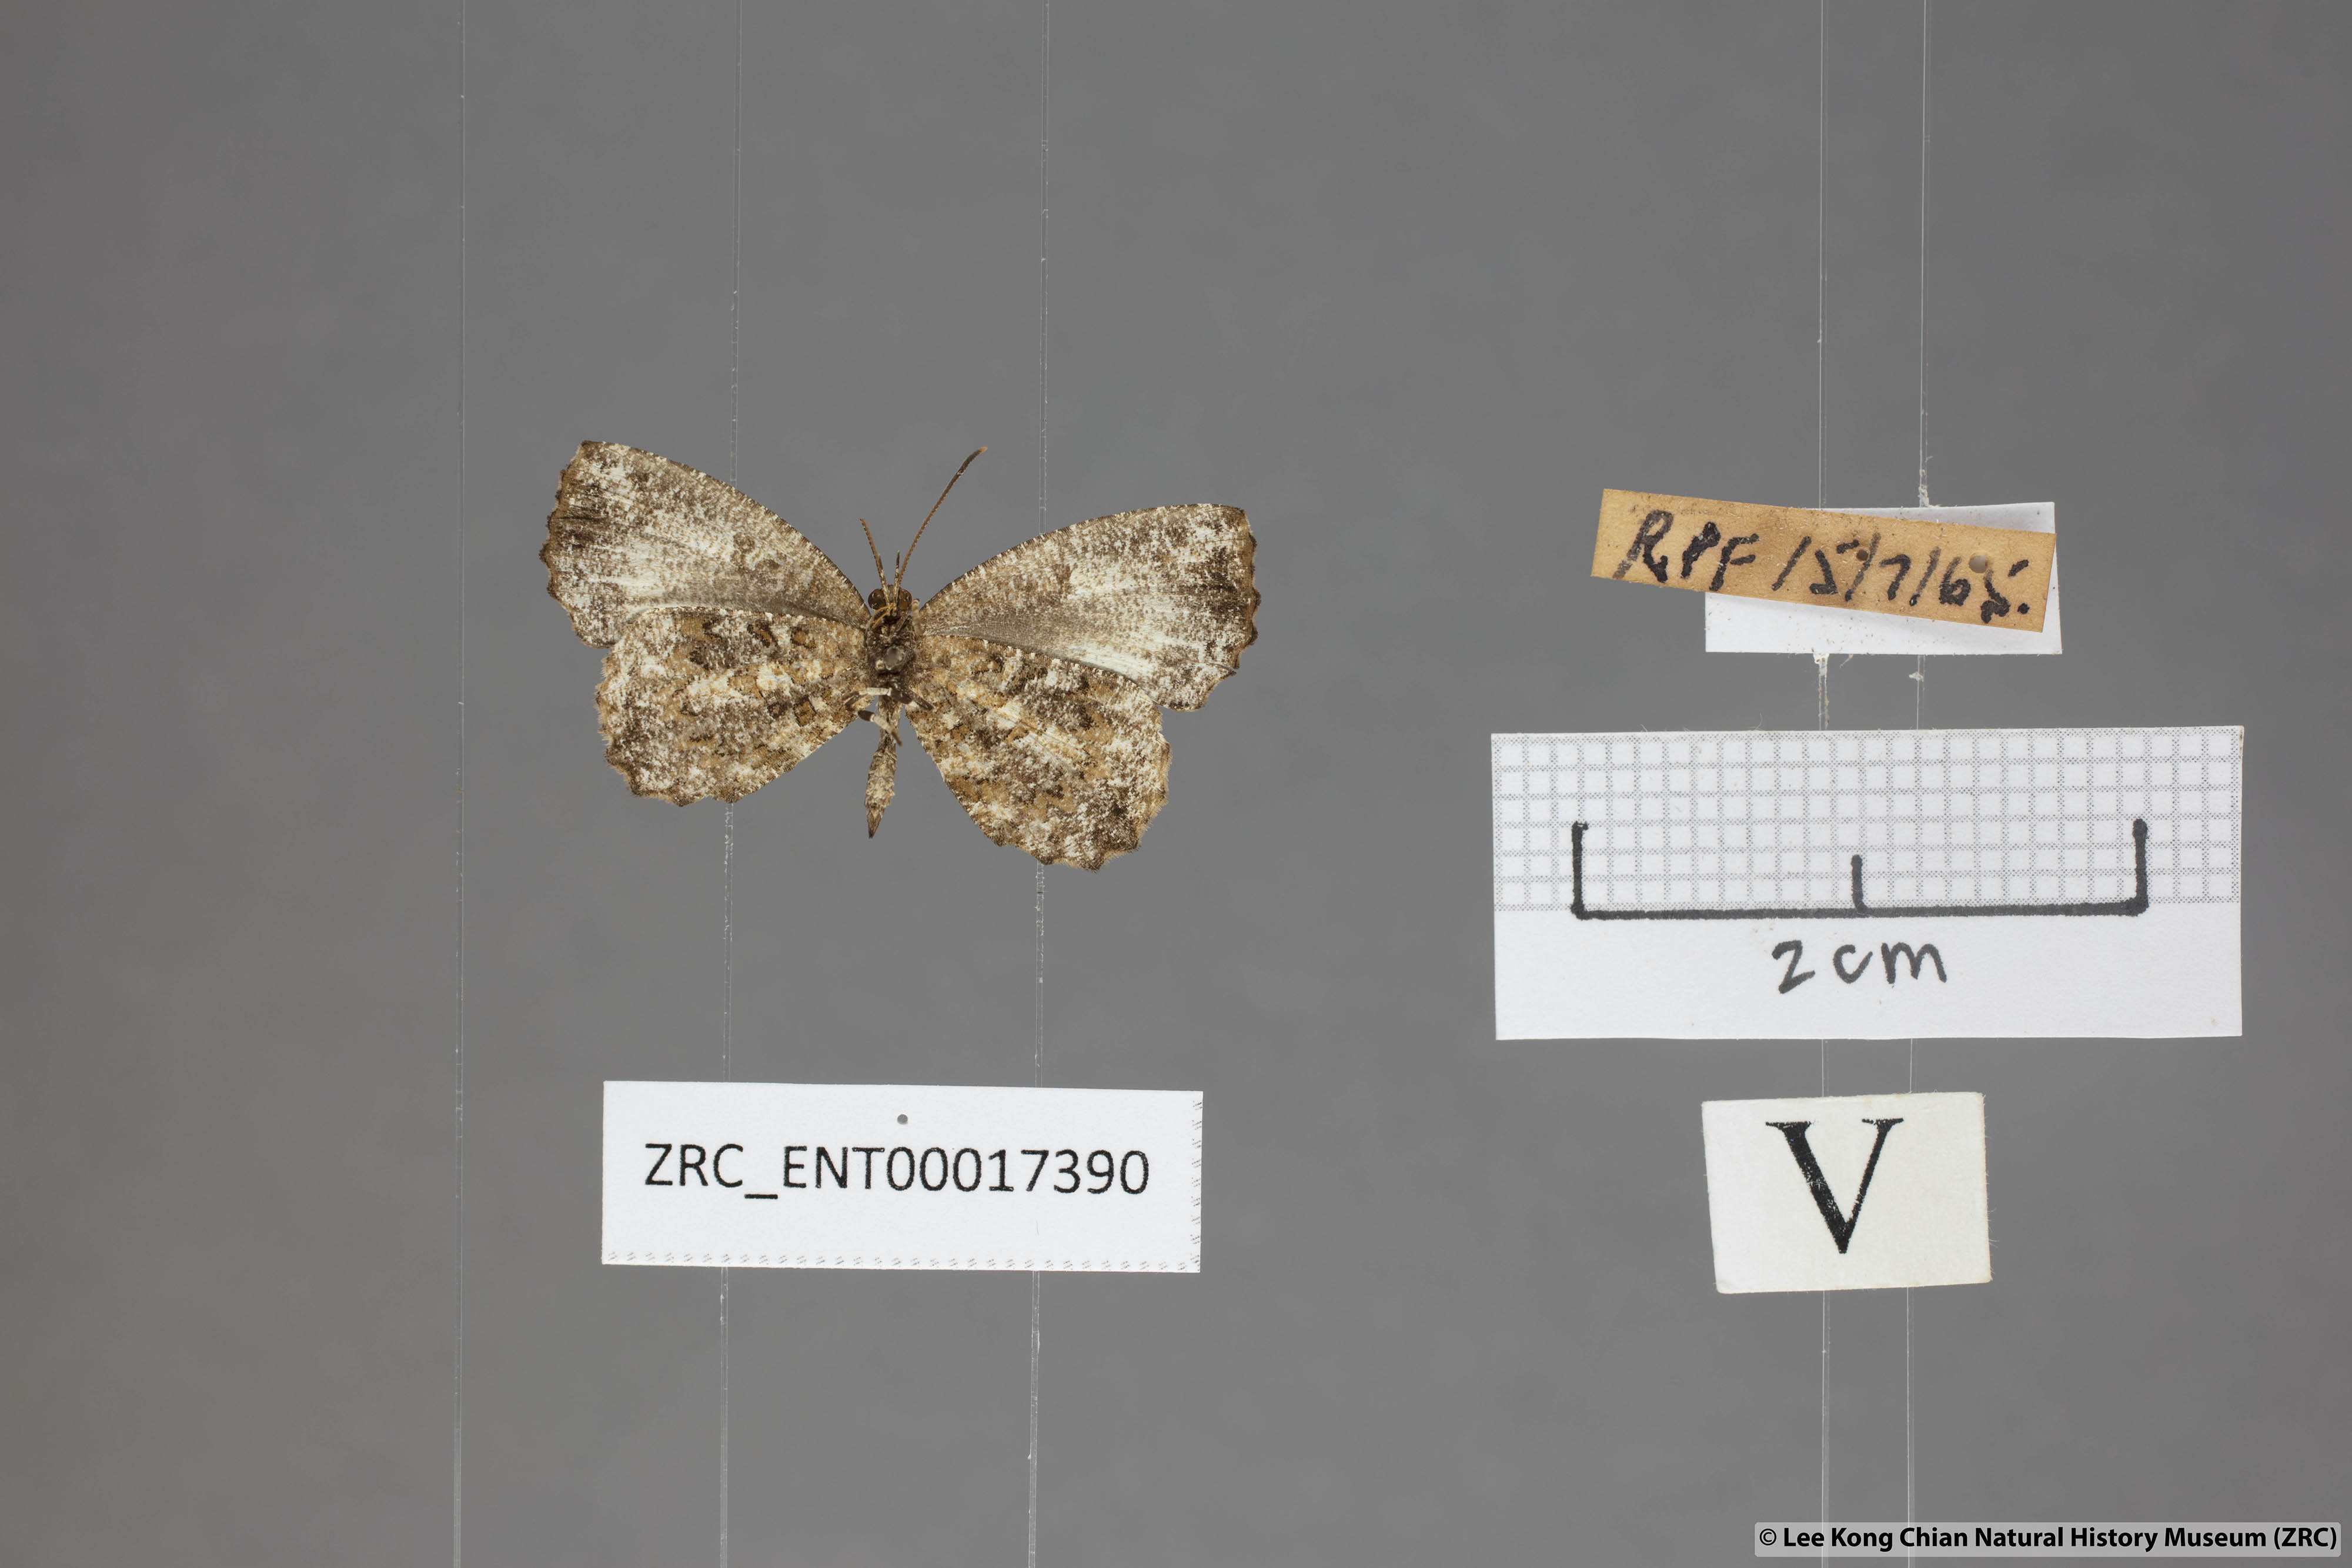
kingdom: Animalia
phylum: Arthropoda
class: Insecta
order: Lepidoptera
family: Lycaenidae
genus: Logania
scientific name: Logania marmorata
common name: Pale mottle
